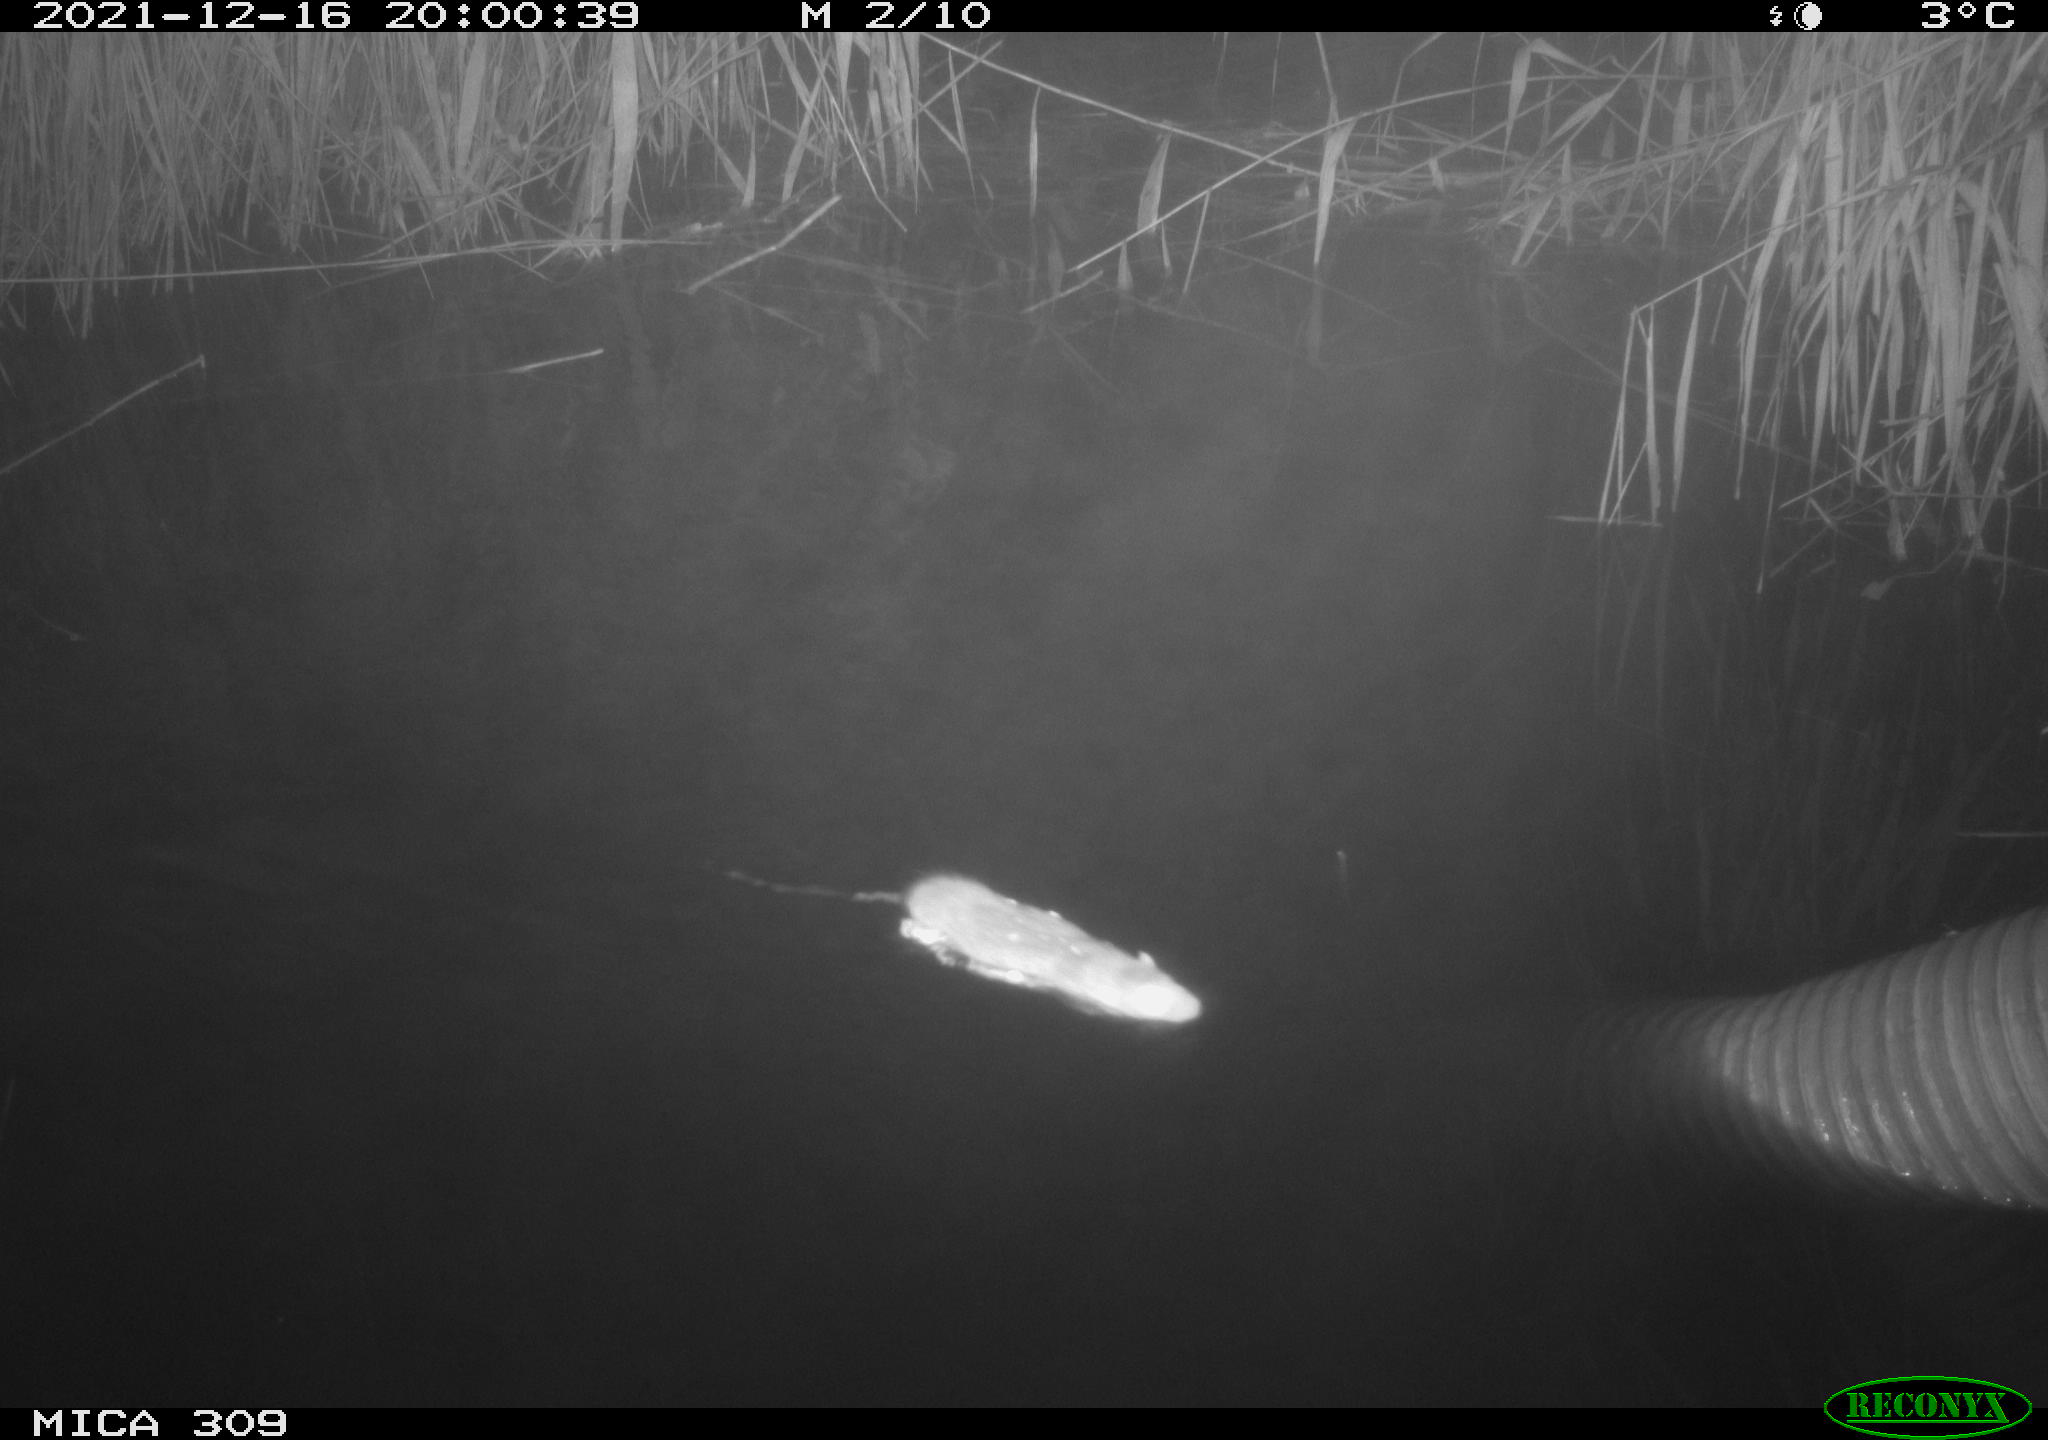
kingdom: Animalia
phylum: Chordata
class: Mammalia
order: Rodentia
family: Muridae
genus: Rattus
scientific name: Rattus norvegicus
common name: Brown rat
